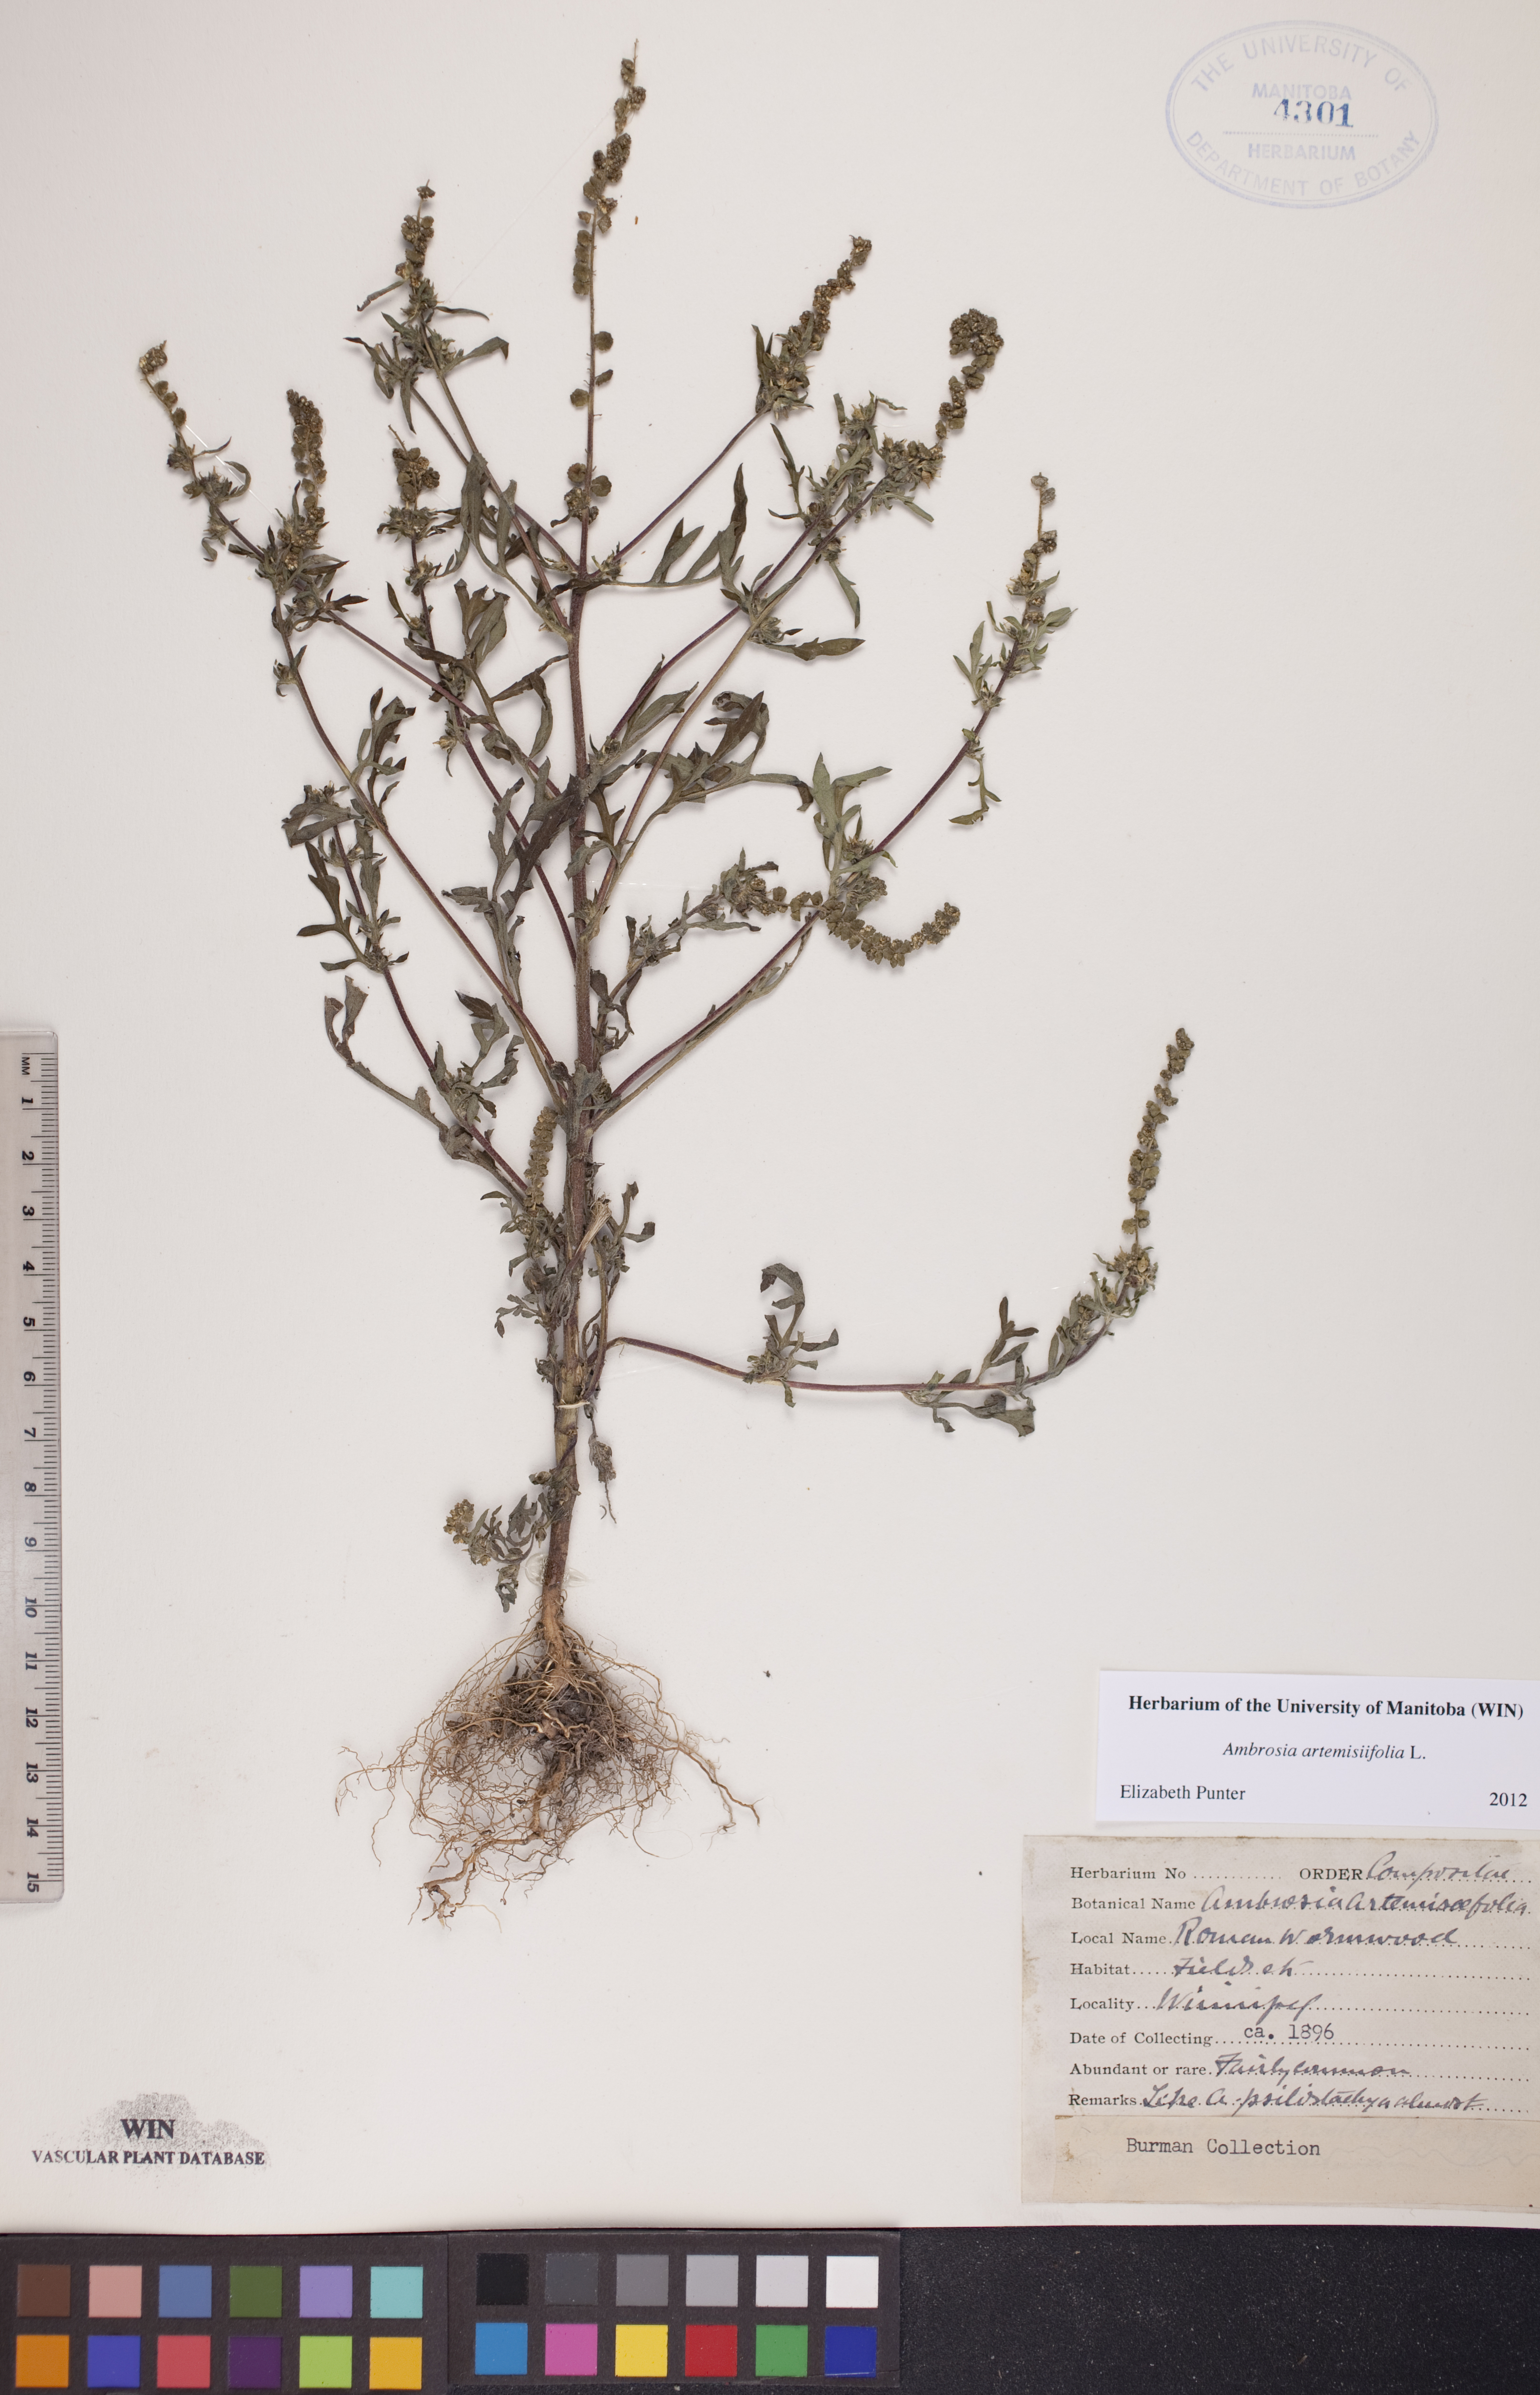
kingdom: Plantae
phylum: Tracheophyta
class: Magnoliopsida
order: Asterales
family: Asteraceae
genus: Ambrosia
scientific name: Ambrosia artemisiifolia
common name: Annual ragweed
